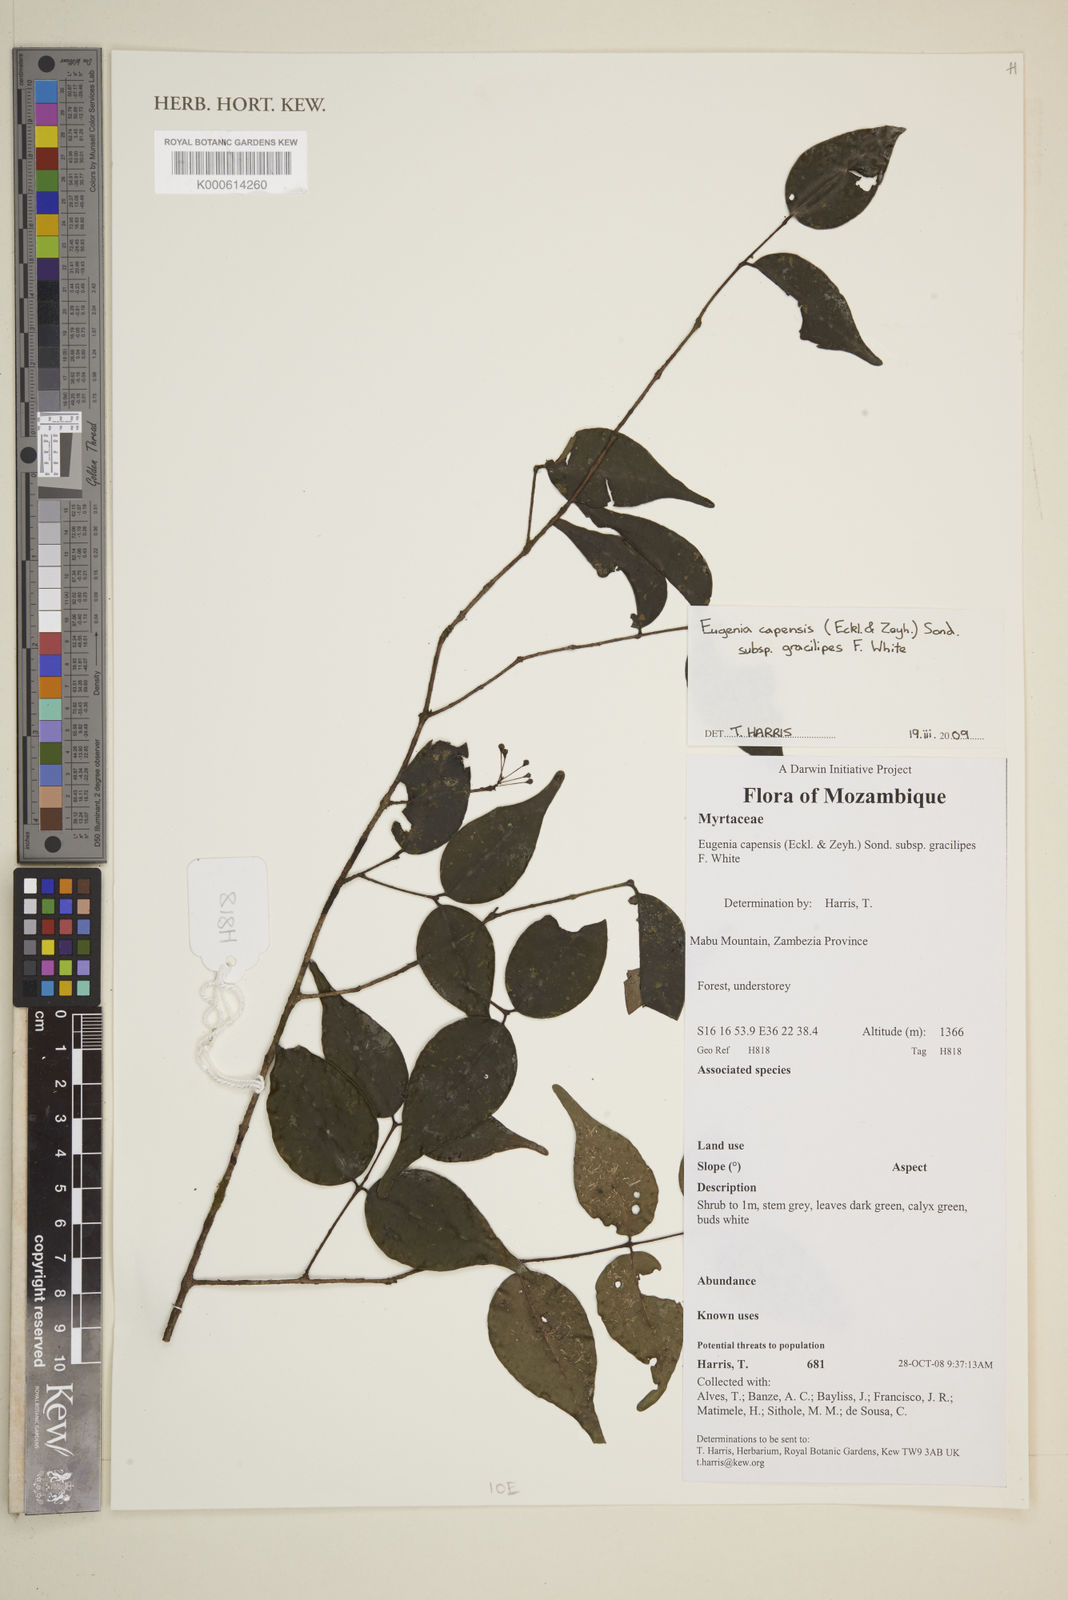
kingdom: Plantae
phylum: Tracheophyta
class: Magnoliopsida
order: Myrtales
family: Myrtaceae
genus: Eugenia
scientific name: Eugenia capensis
